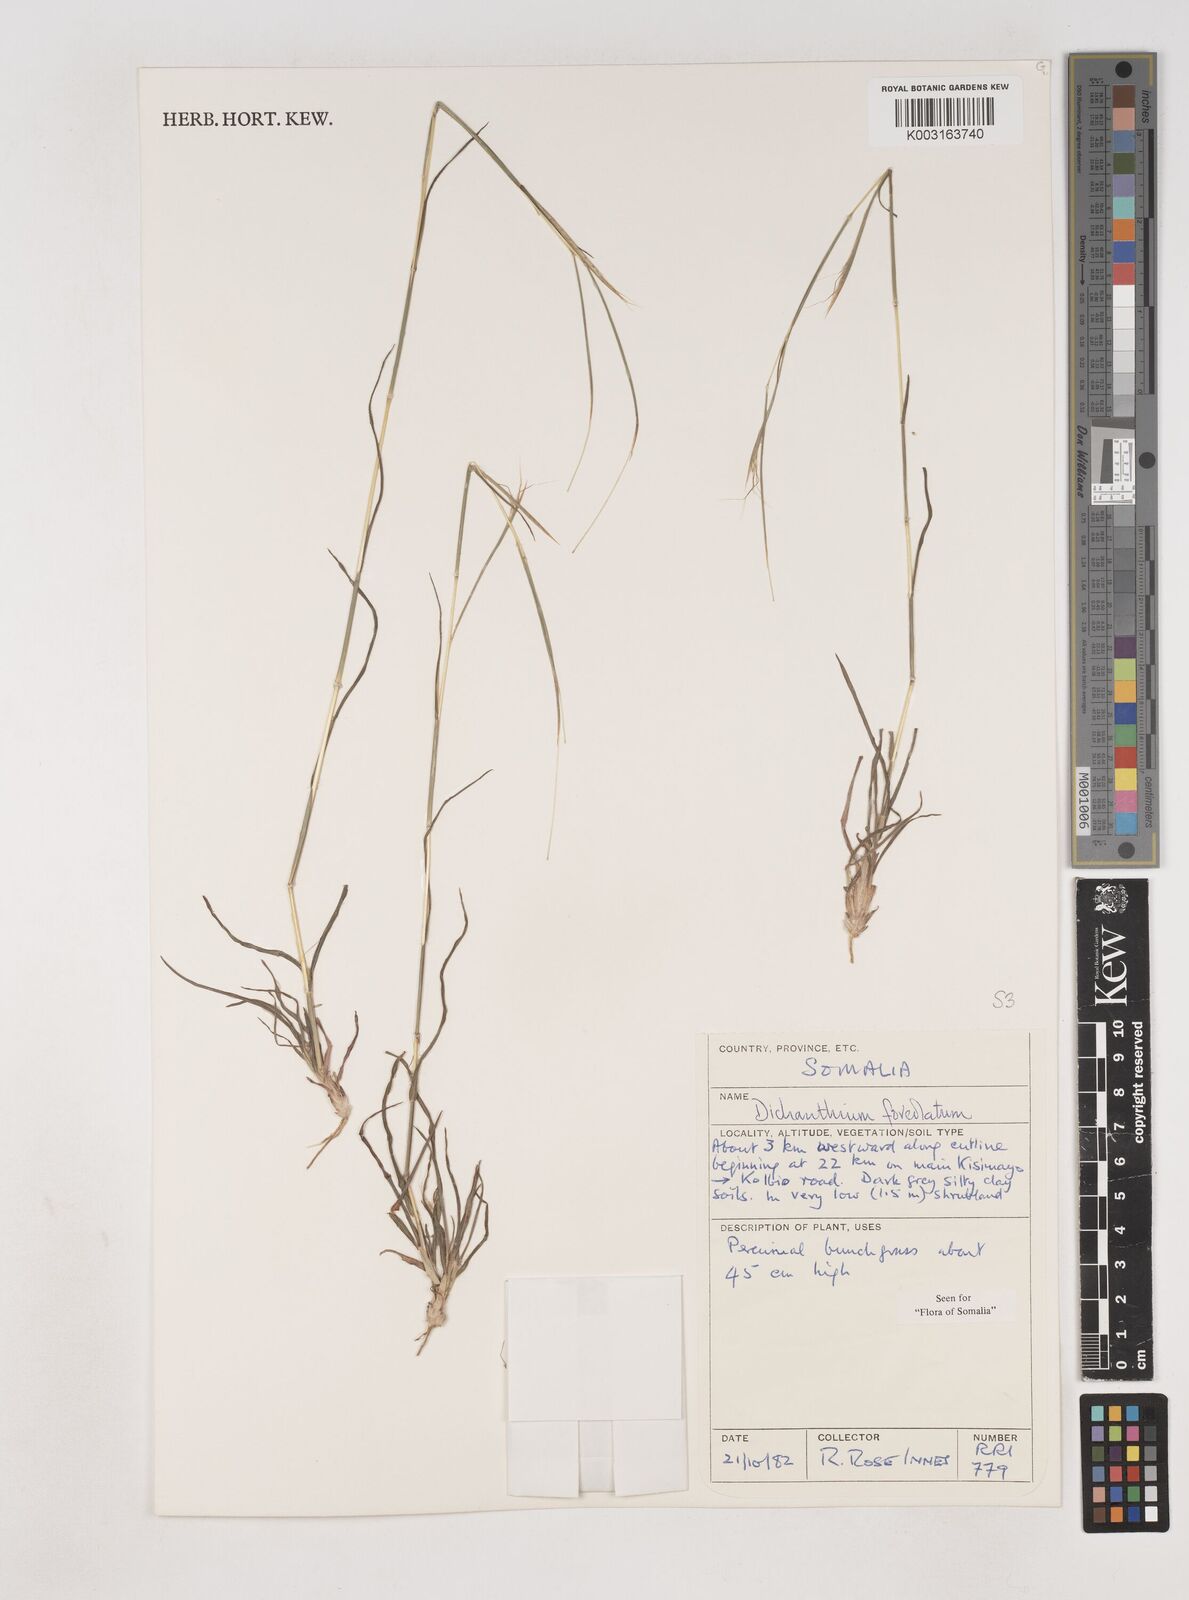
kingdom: Plantae
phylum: Tracheophyta
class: Liliopsida
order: Poales
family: Poaceae
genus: Dichanthium
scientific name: Dichanthium foveolatum
